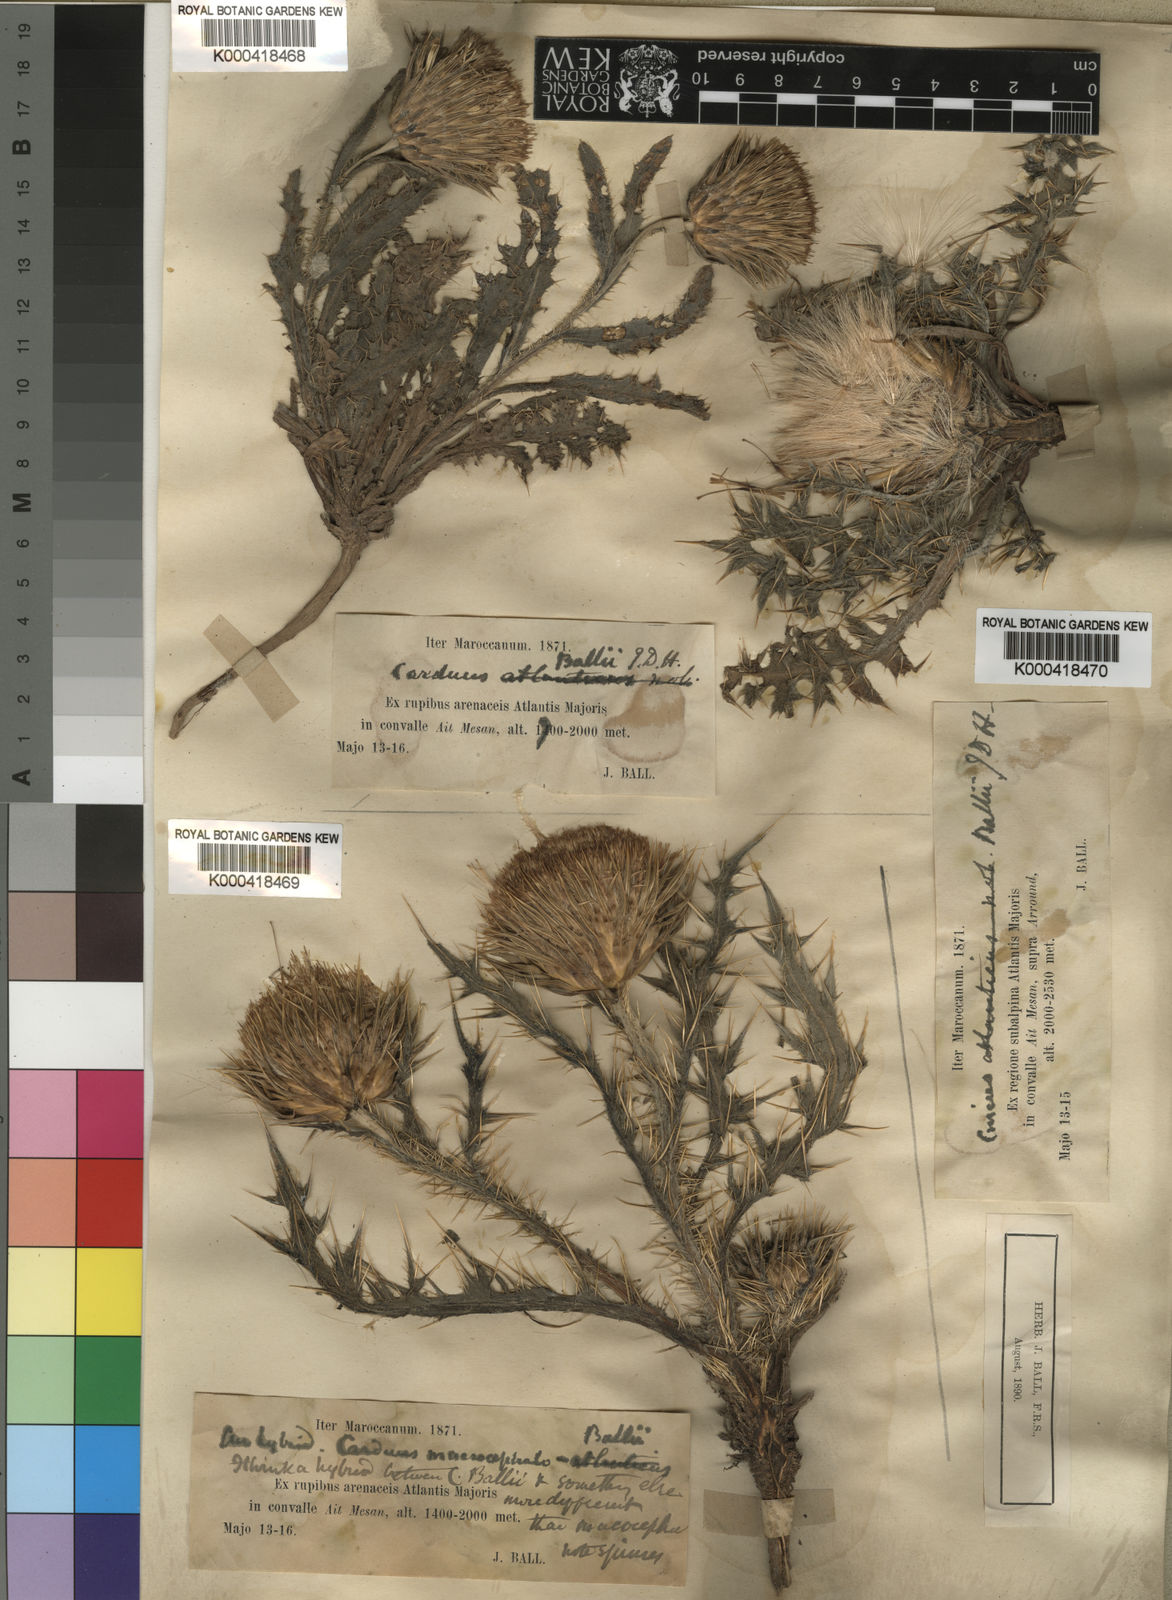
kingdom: Plantae
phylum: Tracheophyta
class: Magnoliopsida
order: Asterales
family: Asteraceae
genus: Carduus
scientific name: Carduus ballii
